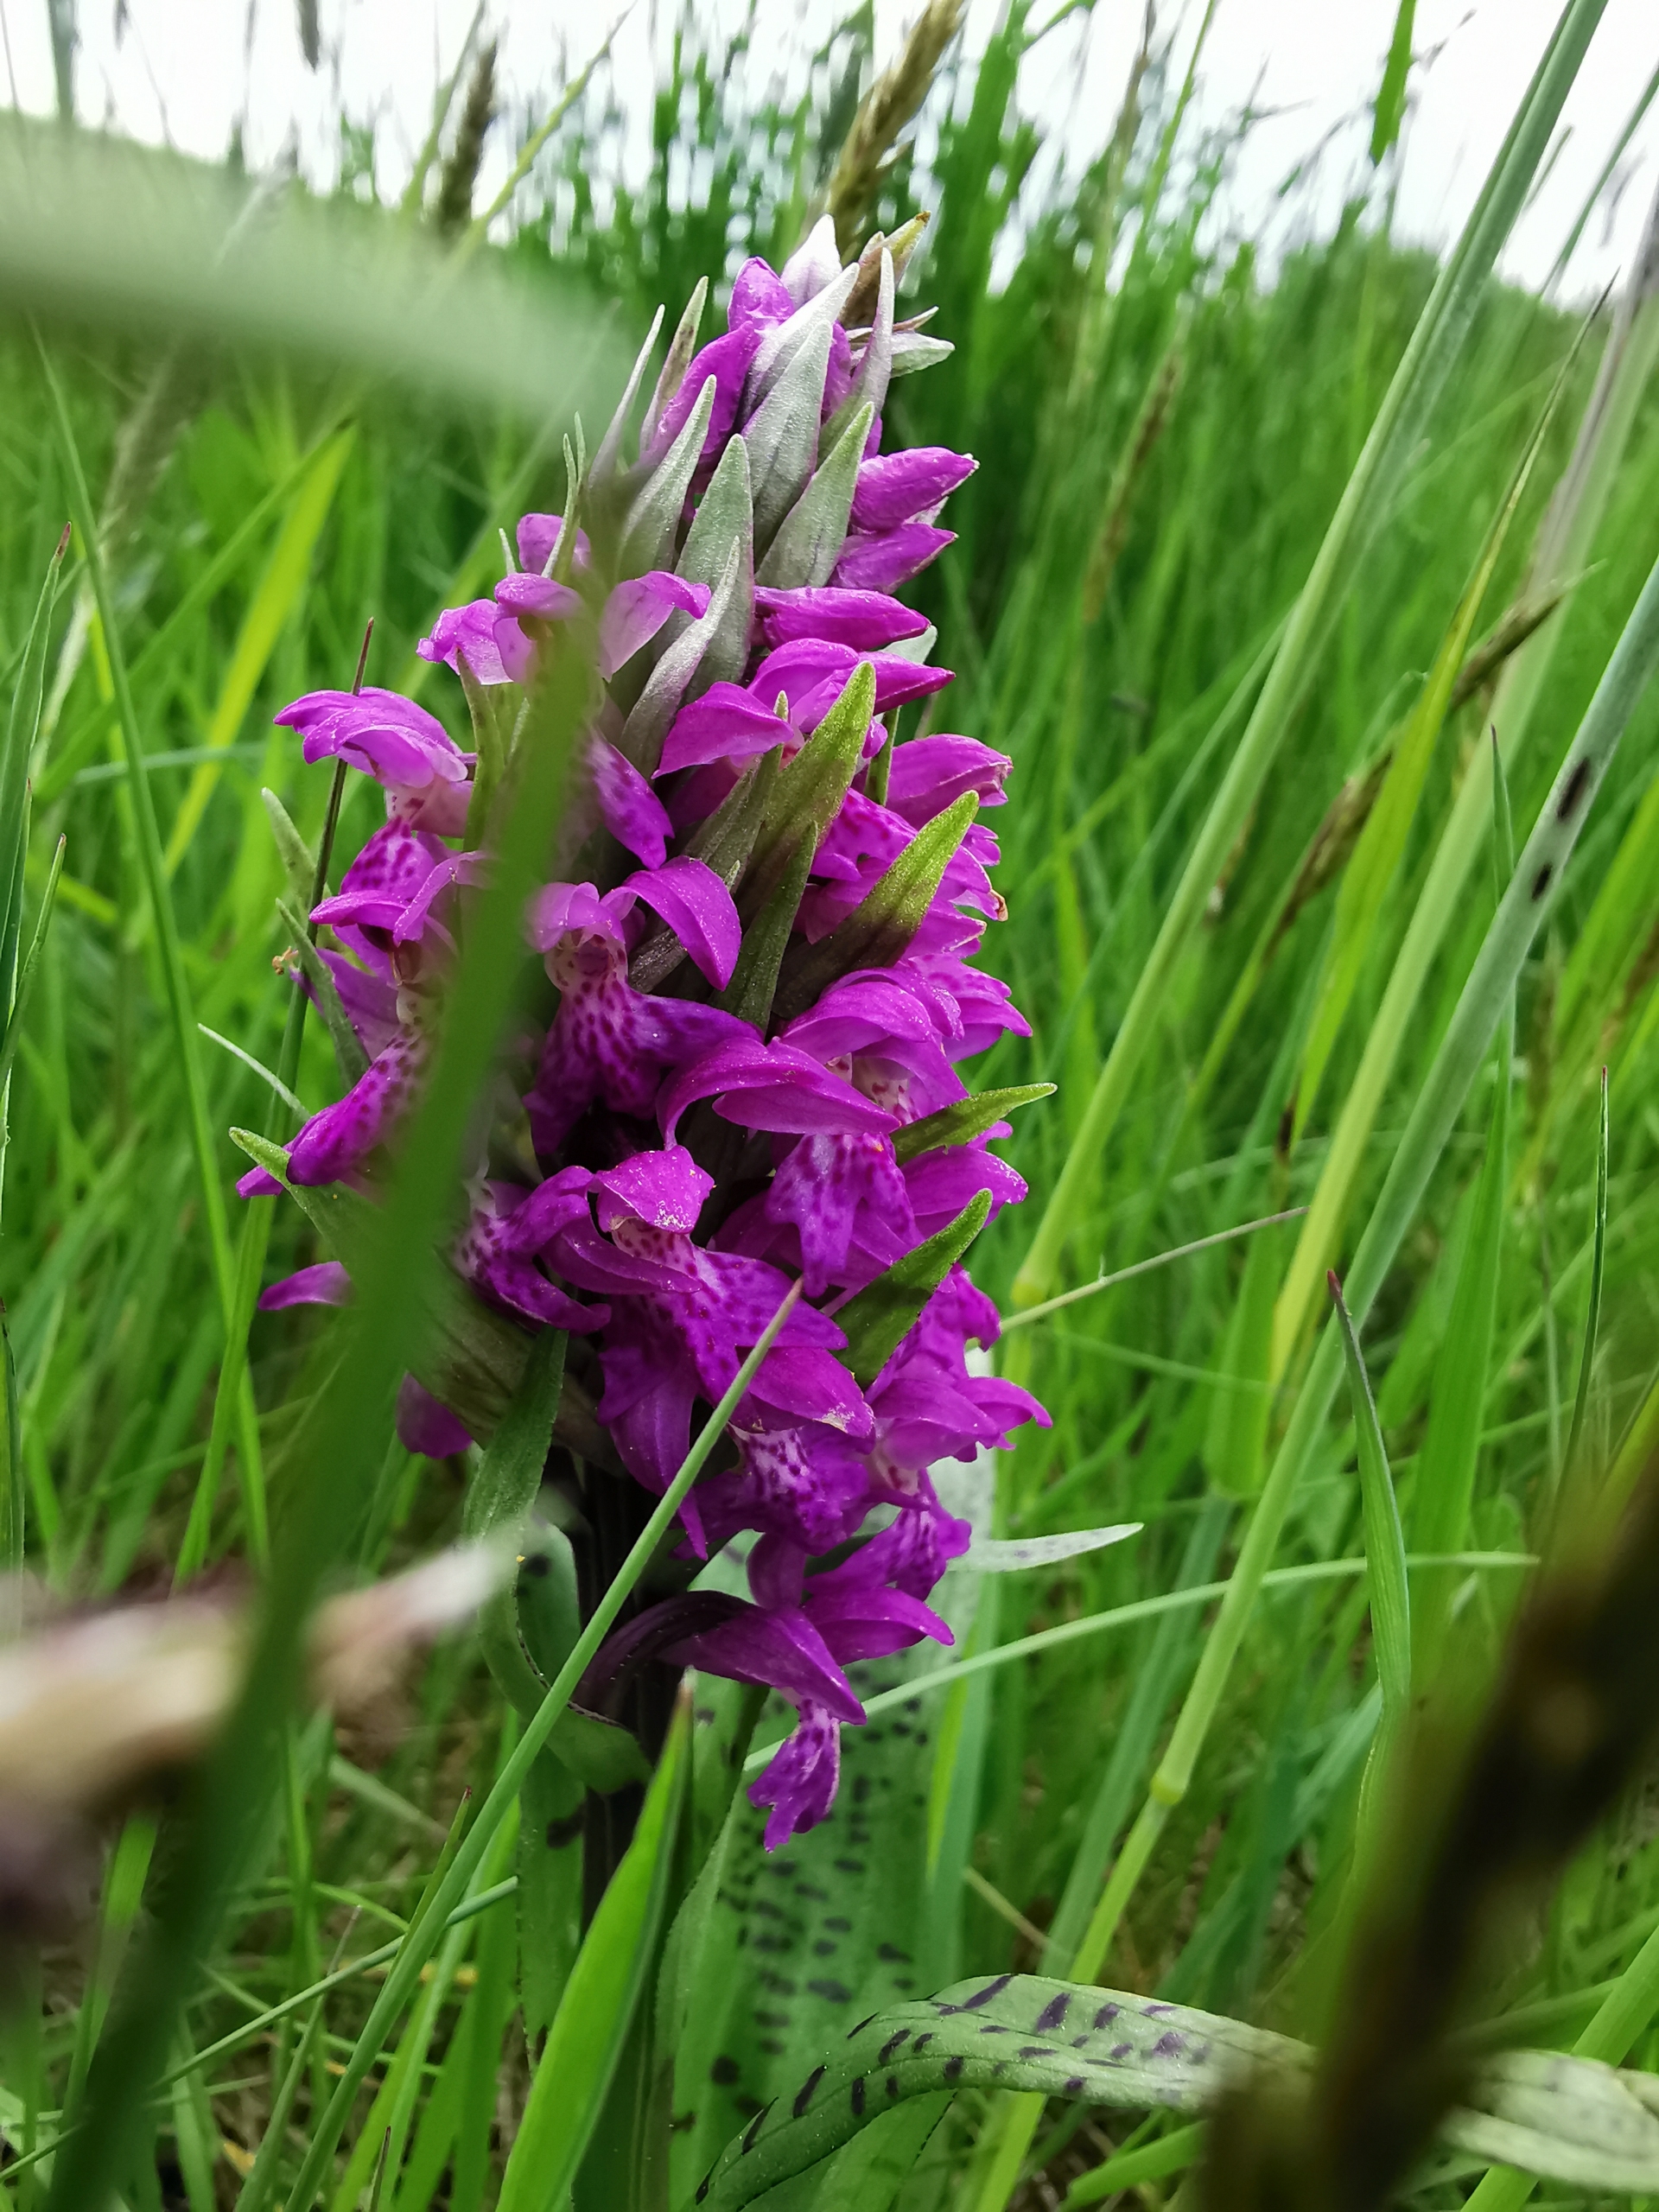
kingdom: Plantae
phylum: Tracheophyta
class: Liliopsida
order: Asparagales
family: Orchidaceae
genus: Dactylorhiza
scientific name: Dactylorhiza majalis
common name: Maj-gøgeurt
